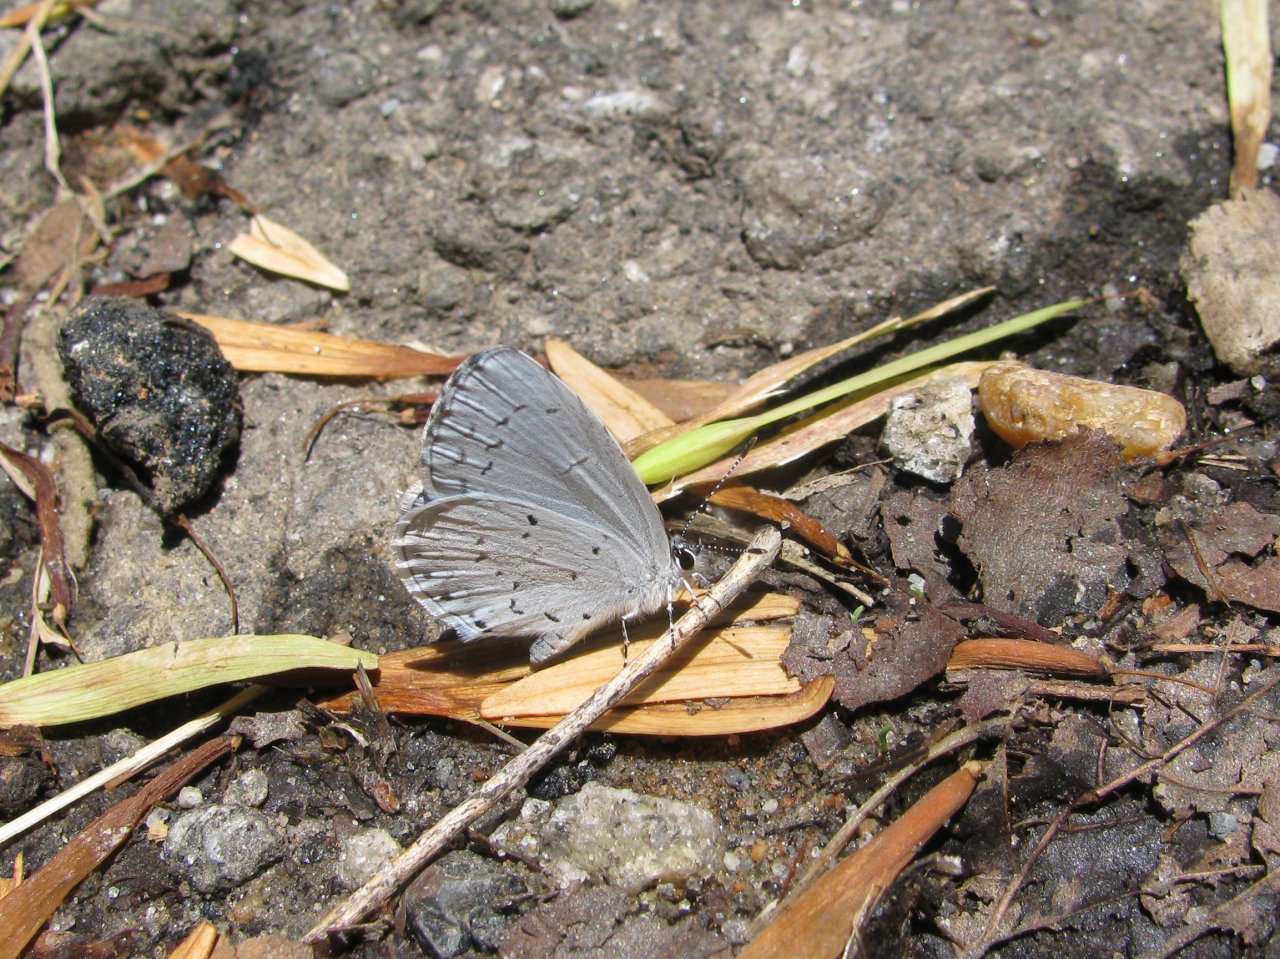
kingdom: Animalia
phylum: Arthropoda
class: Insecta
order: Lepidoptera
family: Lycaenidae
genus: Cyaniris
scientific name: Cyaniris neglecta
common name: Summer Azure
